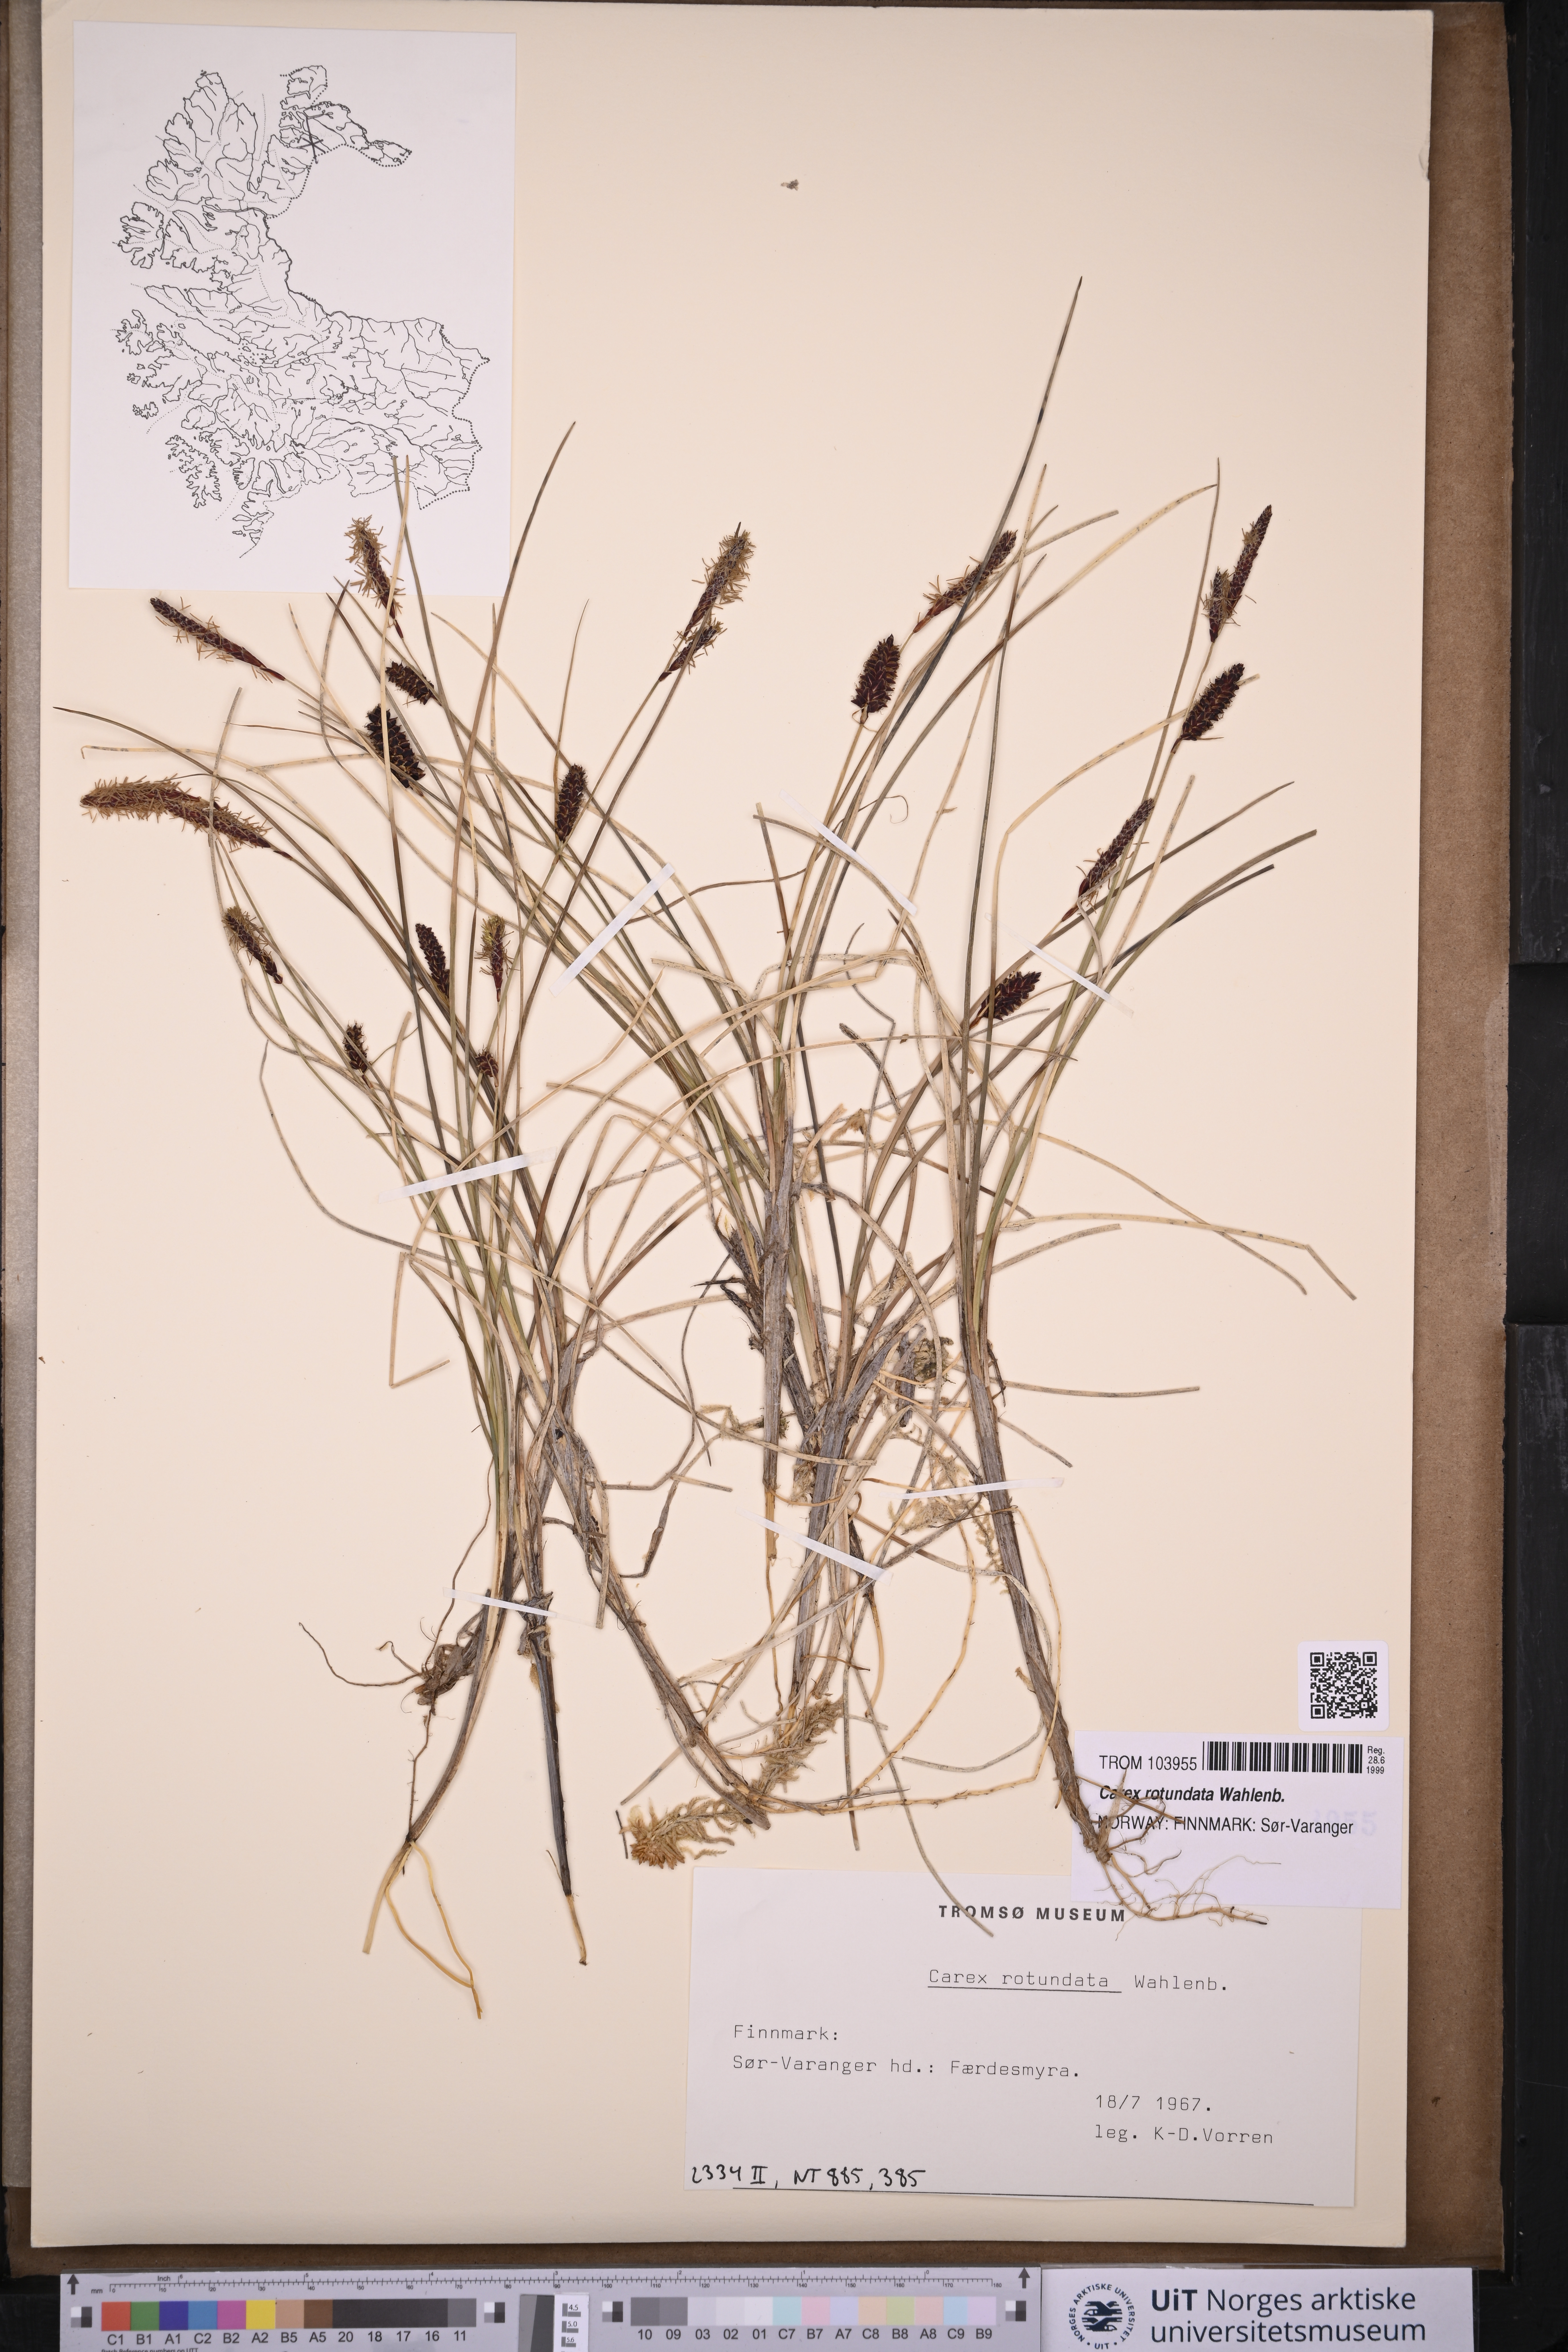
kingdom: Plantae
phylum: Tracheophyta
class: Liliopsida
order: Poales
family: Cyperaceae
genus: Carex
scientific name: Carex rotundata
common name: Round-fruited sedge
